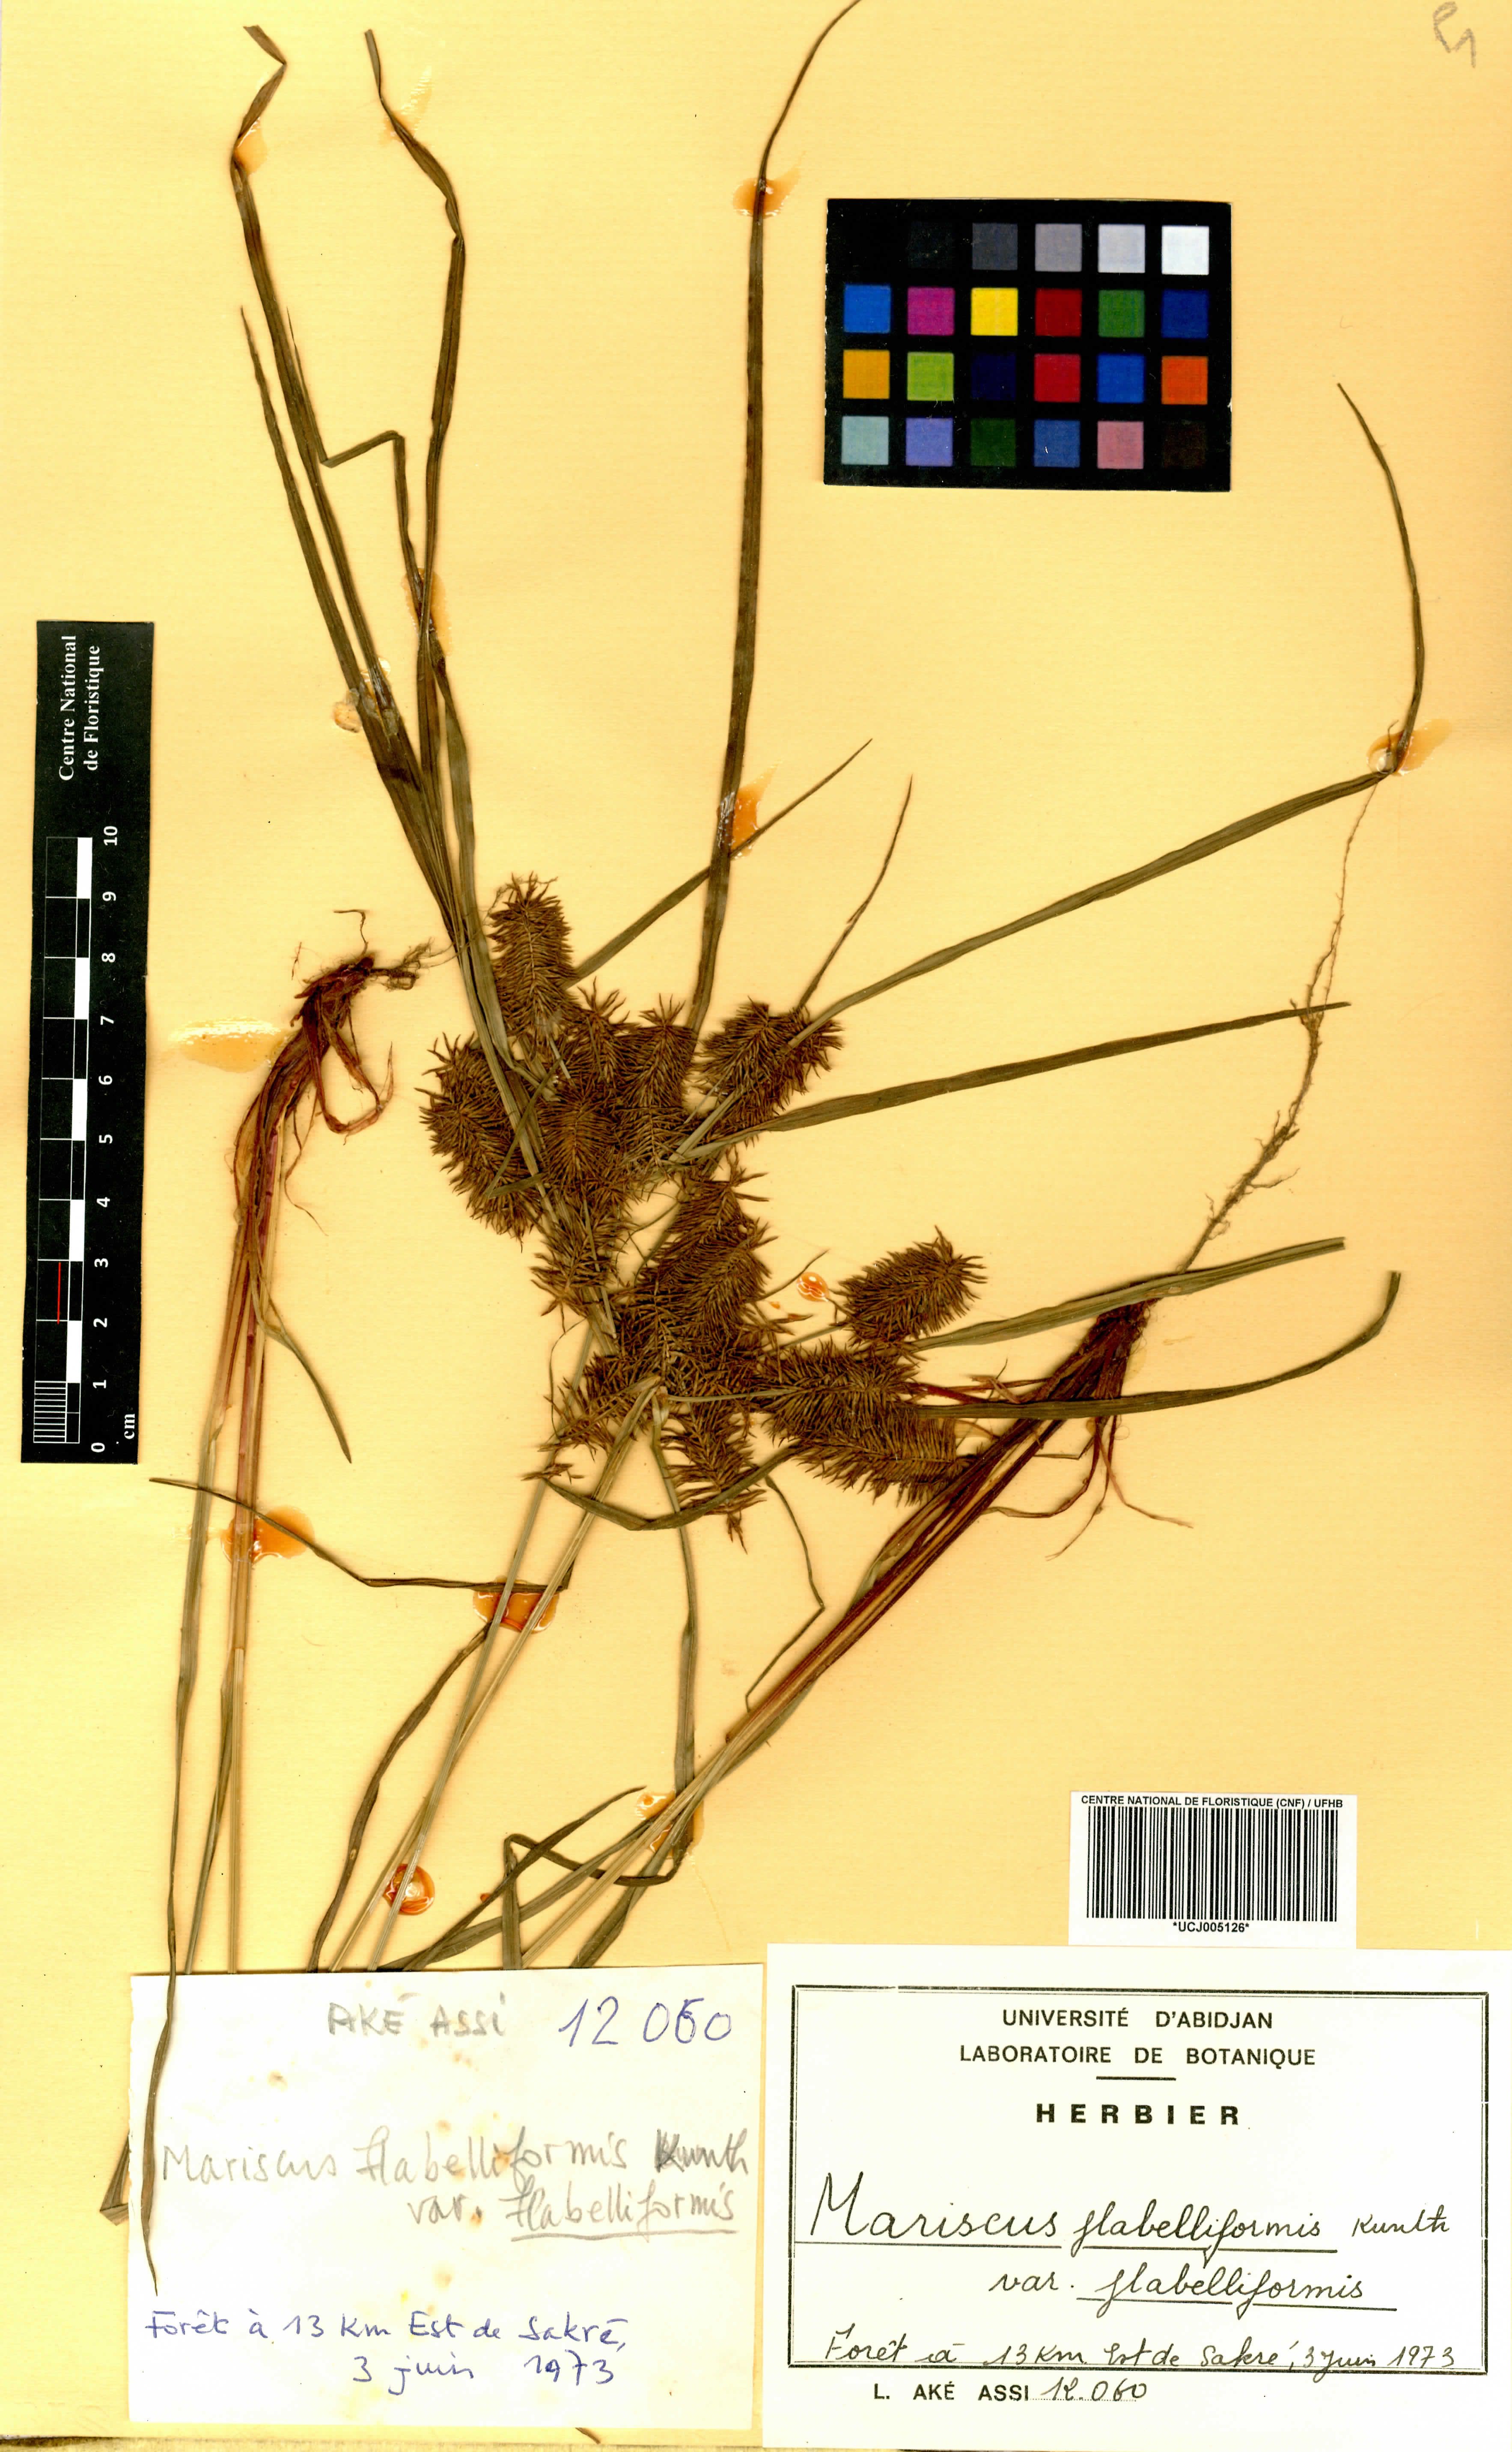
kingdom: Plantae
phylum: Tracheophyta
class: Liliopsida
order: Poales
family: Cyperaceae
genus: Cyperus
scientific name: Cyperus tenuis
